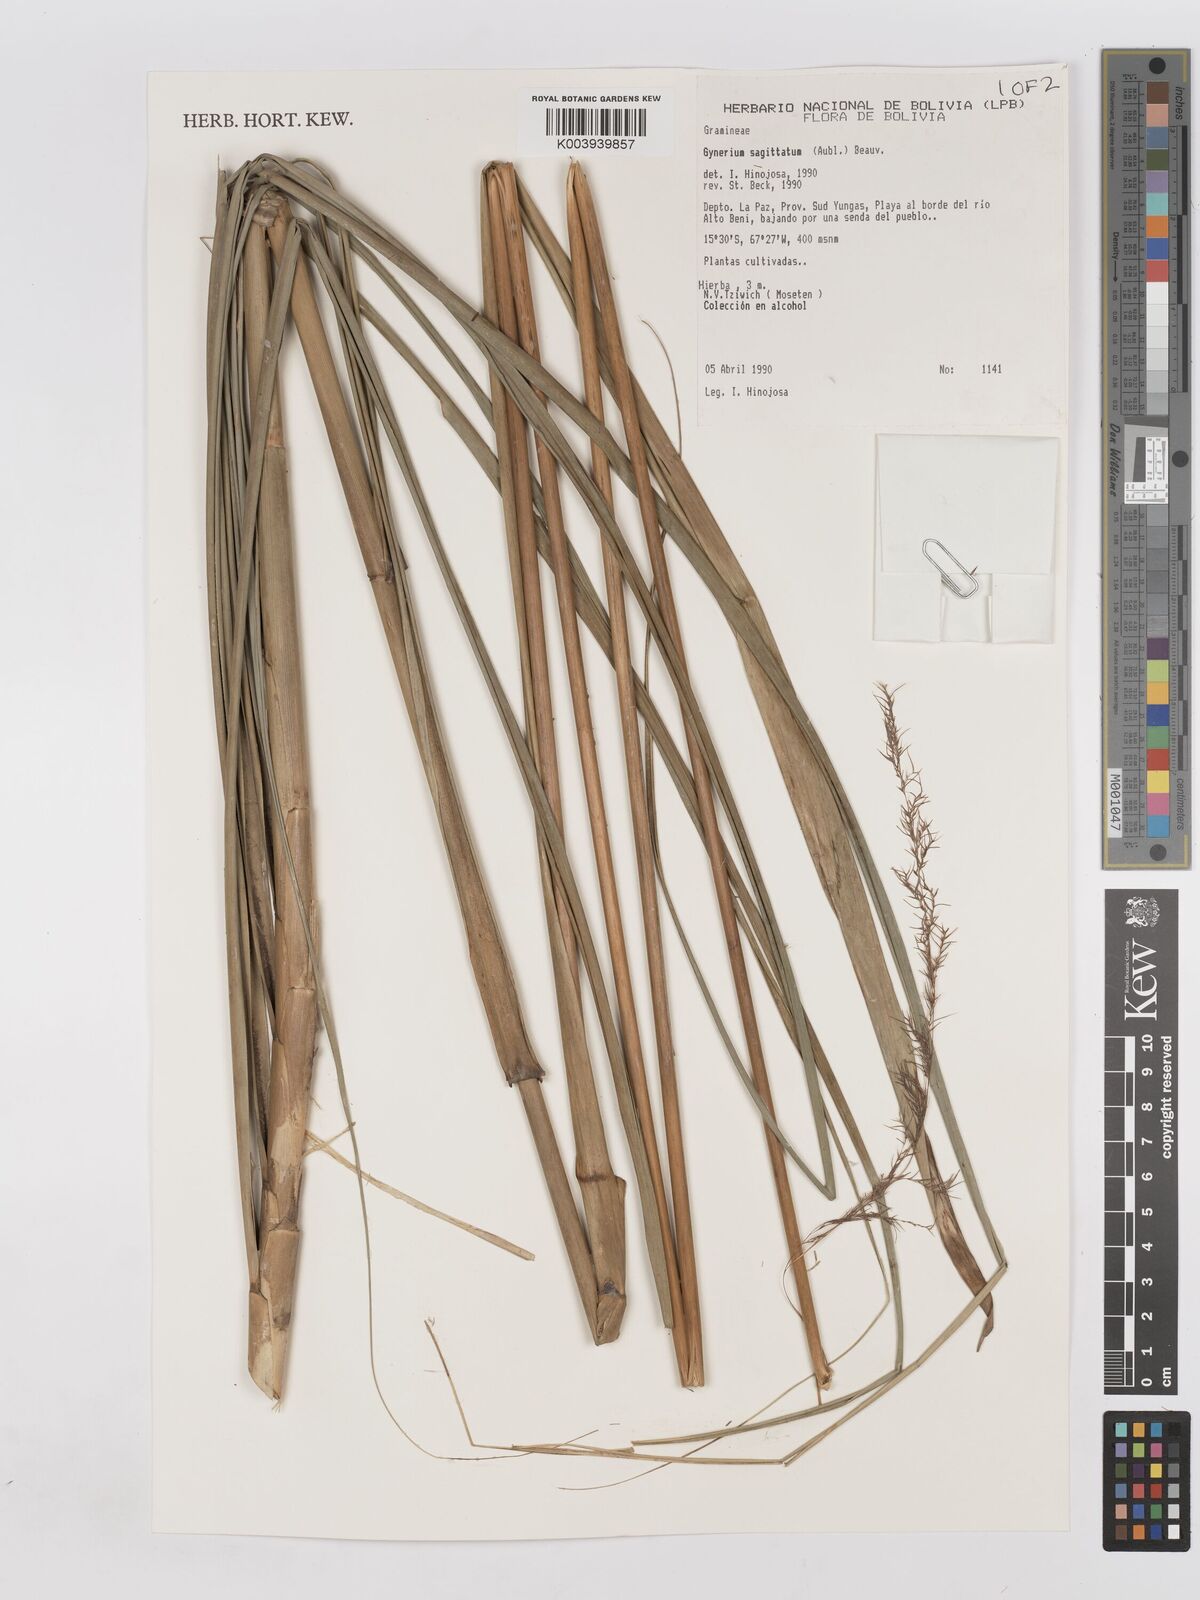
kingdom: Plantae
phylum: Tracheophyta
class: Liliopsida
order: Poales
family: Poaceae
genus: Gynerium
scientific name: Gynerium sagittatum
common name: Wild cane
